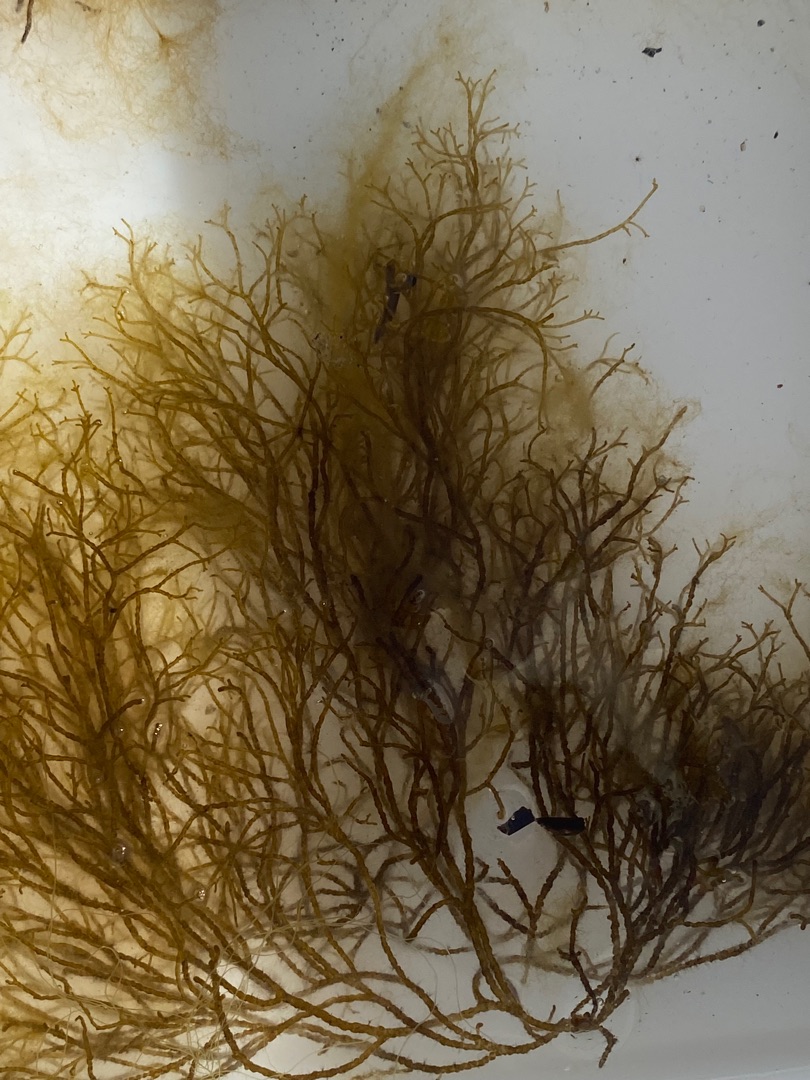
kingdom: Chromista
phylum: Ochrophyta
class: Phaeophyceae
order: Ectocarpales
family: Chordariaceae
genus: Stilophora
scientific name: Stilophora tenella
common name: Ru fregnetang
